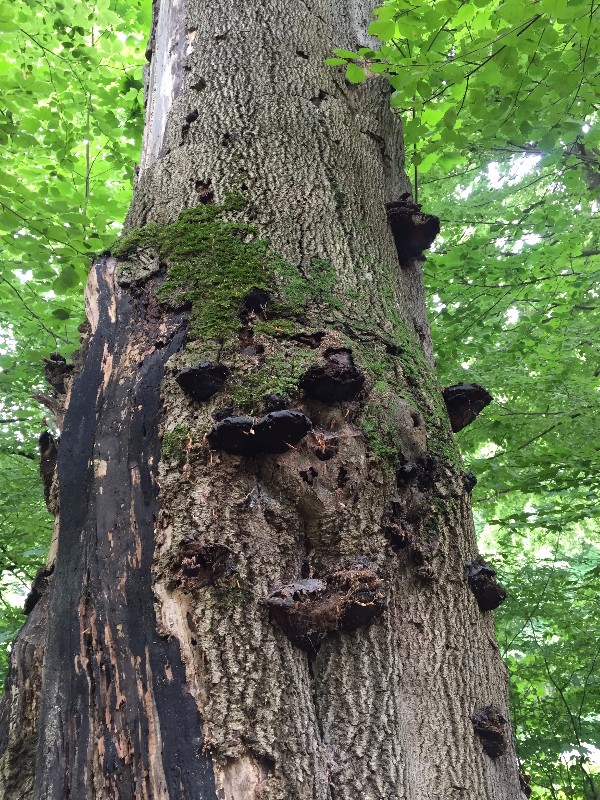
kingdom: Fungi
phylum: Basidiomycota
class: Agaricomycetes
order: Polyporales
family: Polyporaceae
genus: Fomes
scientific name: Fomes fomentarius
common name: tøndersvamp
